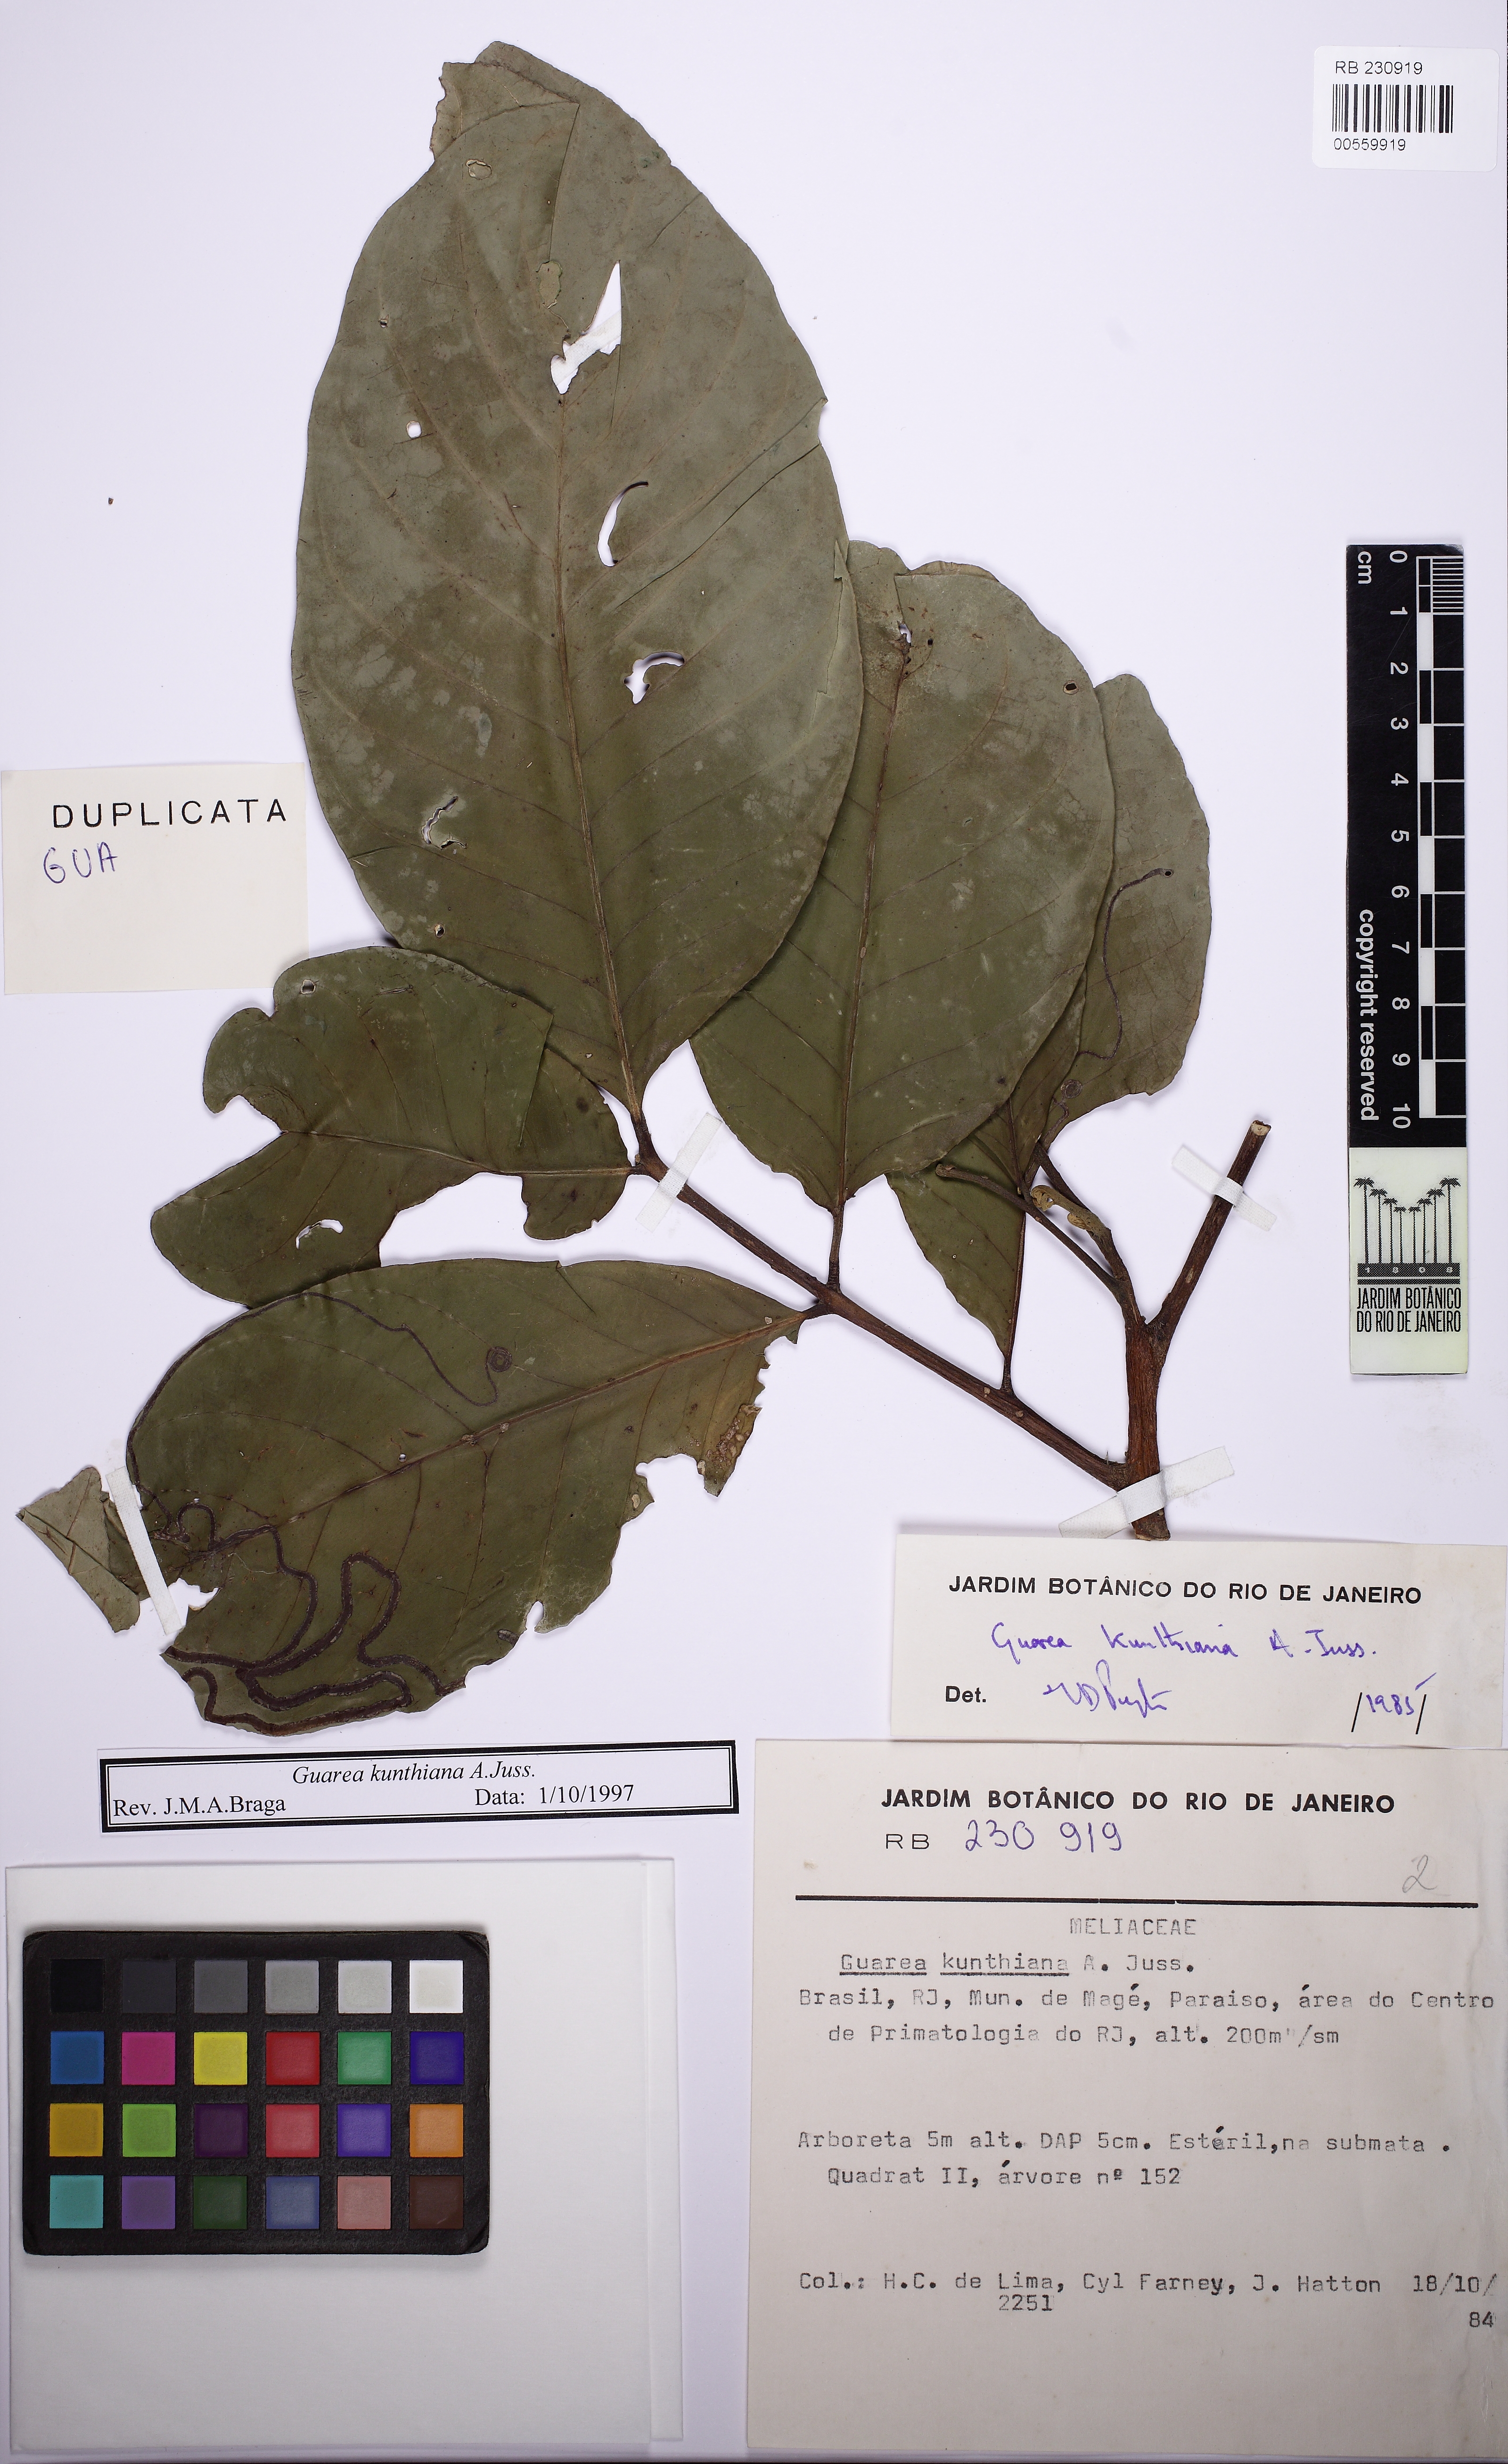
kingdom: Plantae
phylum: Tracheophyta
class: Magnoliopsida
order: Sapindales
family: Meliaceae
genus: Guarea
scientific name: Guarea kunthiana
